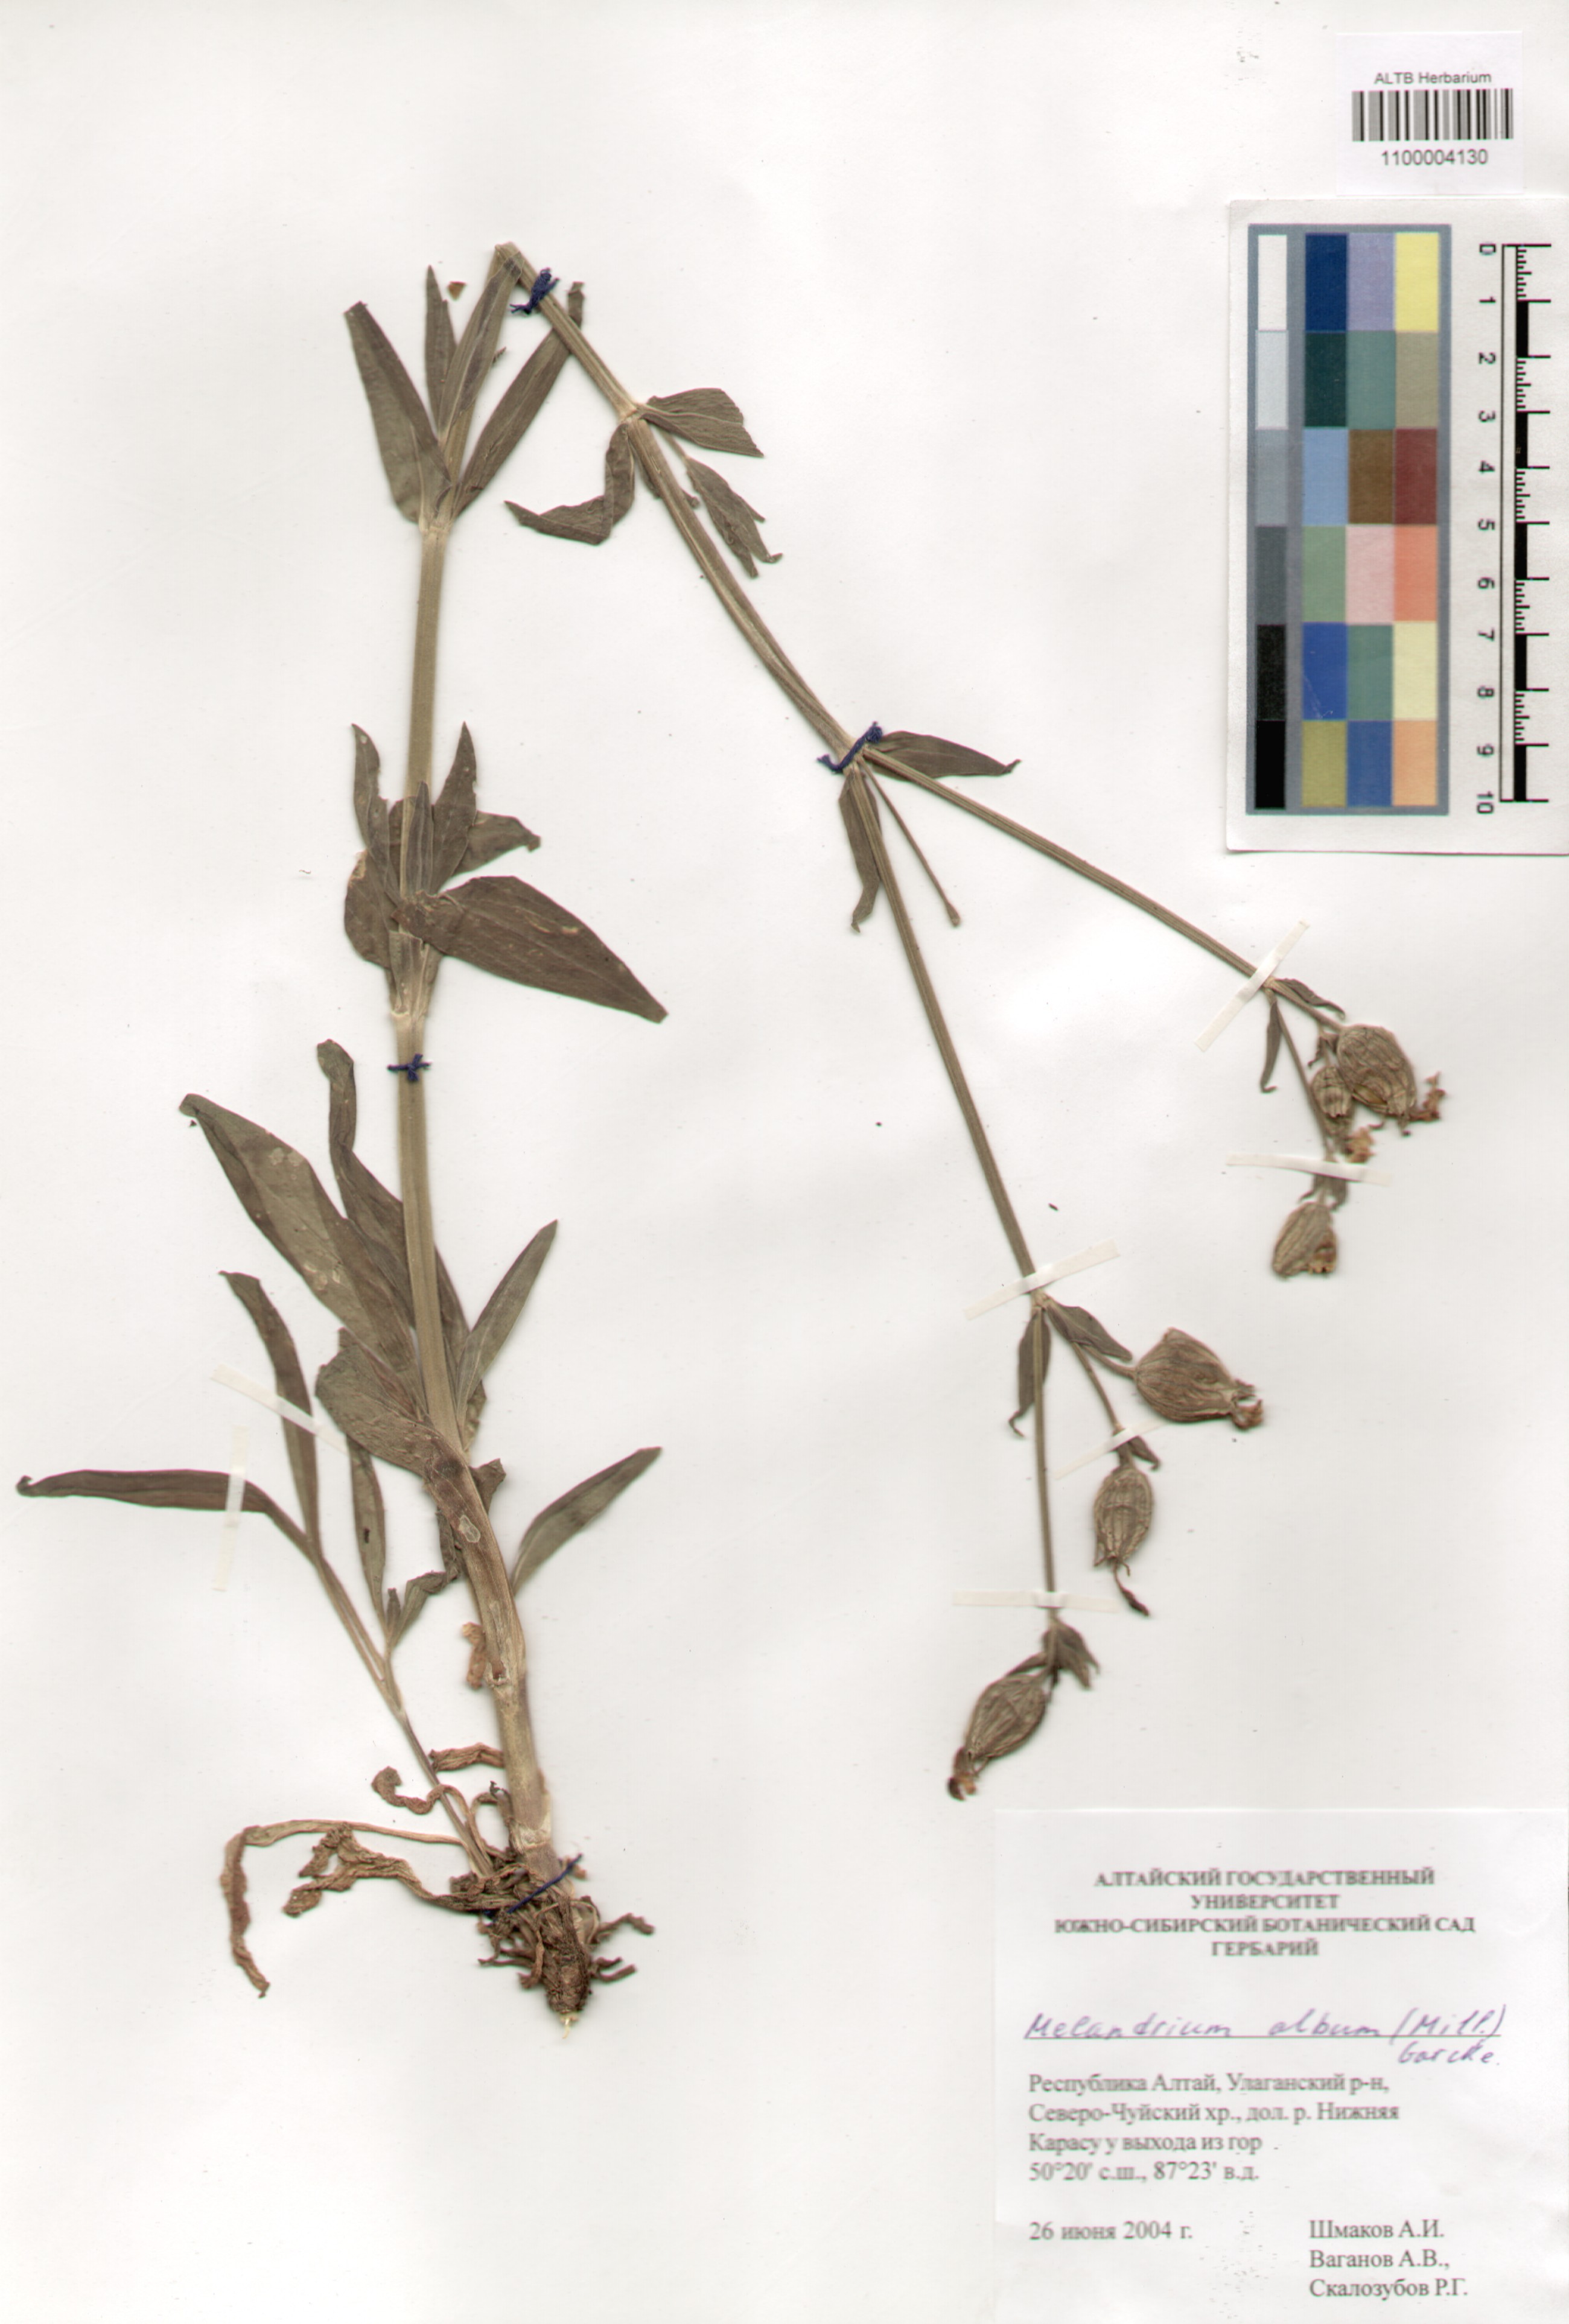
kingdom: Plantae
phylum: Tracheophyta
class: Magnoliopsida
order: Caryophyllales
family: Caryophyllaceae
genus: Silene
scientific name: Silene latifolia
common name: White campion
